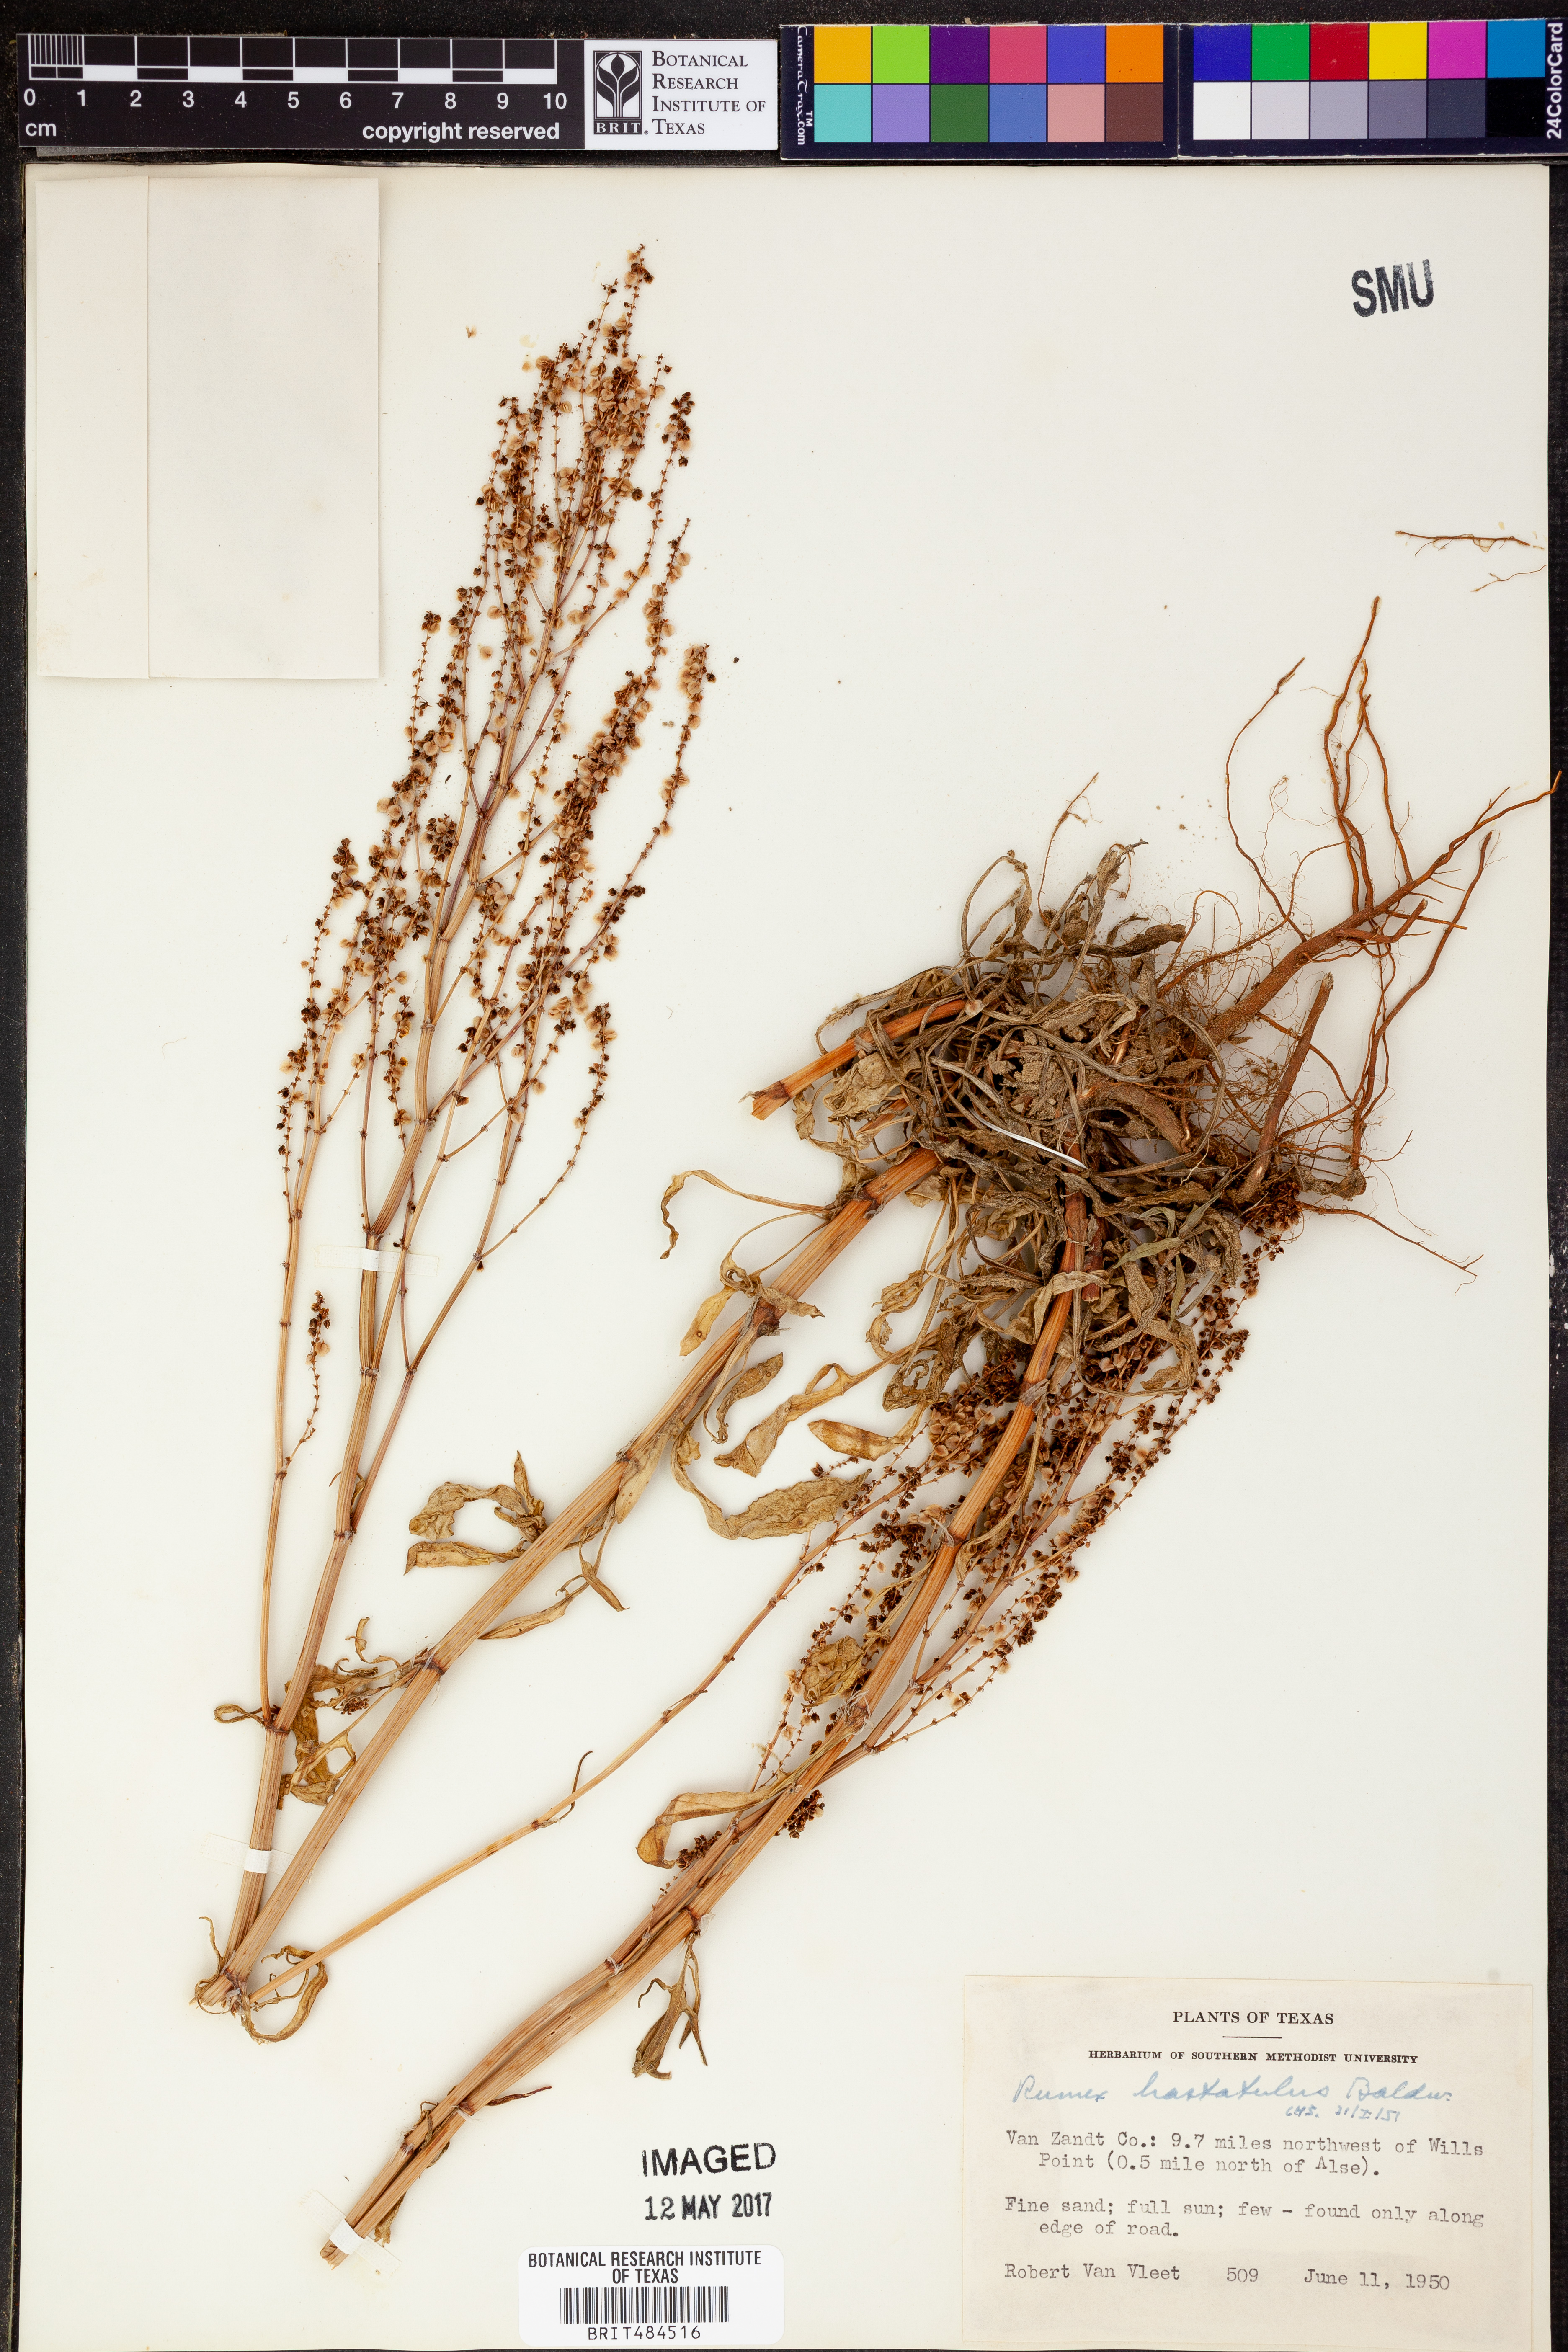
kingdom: Plantae
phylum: Tracheophyta
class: Magnoliopsida
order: Caryophyllales
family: Polygonaceae
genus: Rumex
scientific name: Rumex hastatulus
